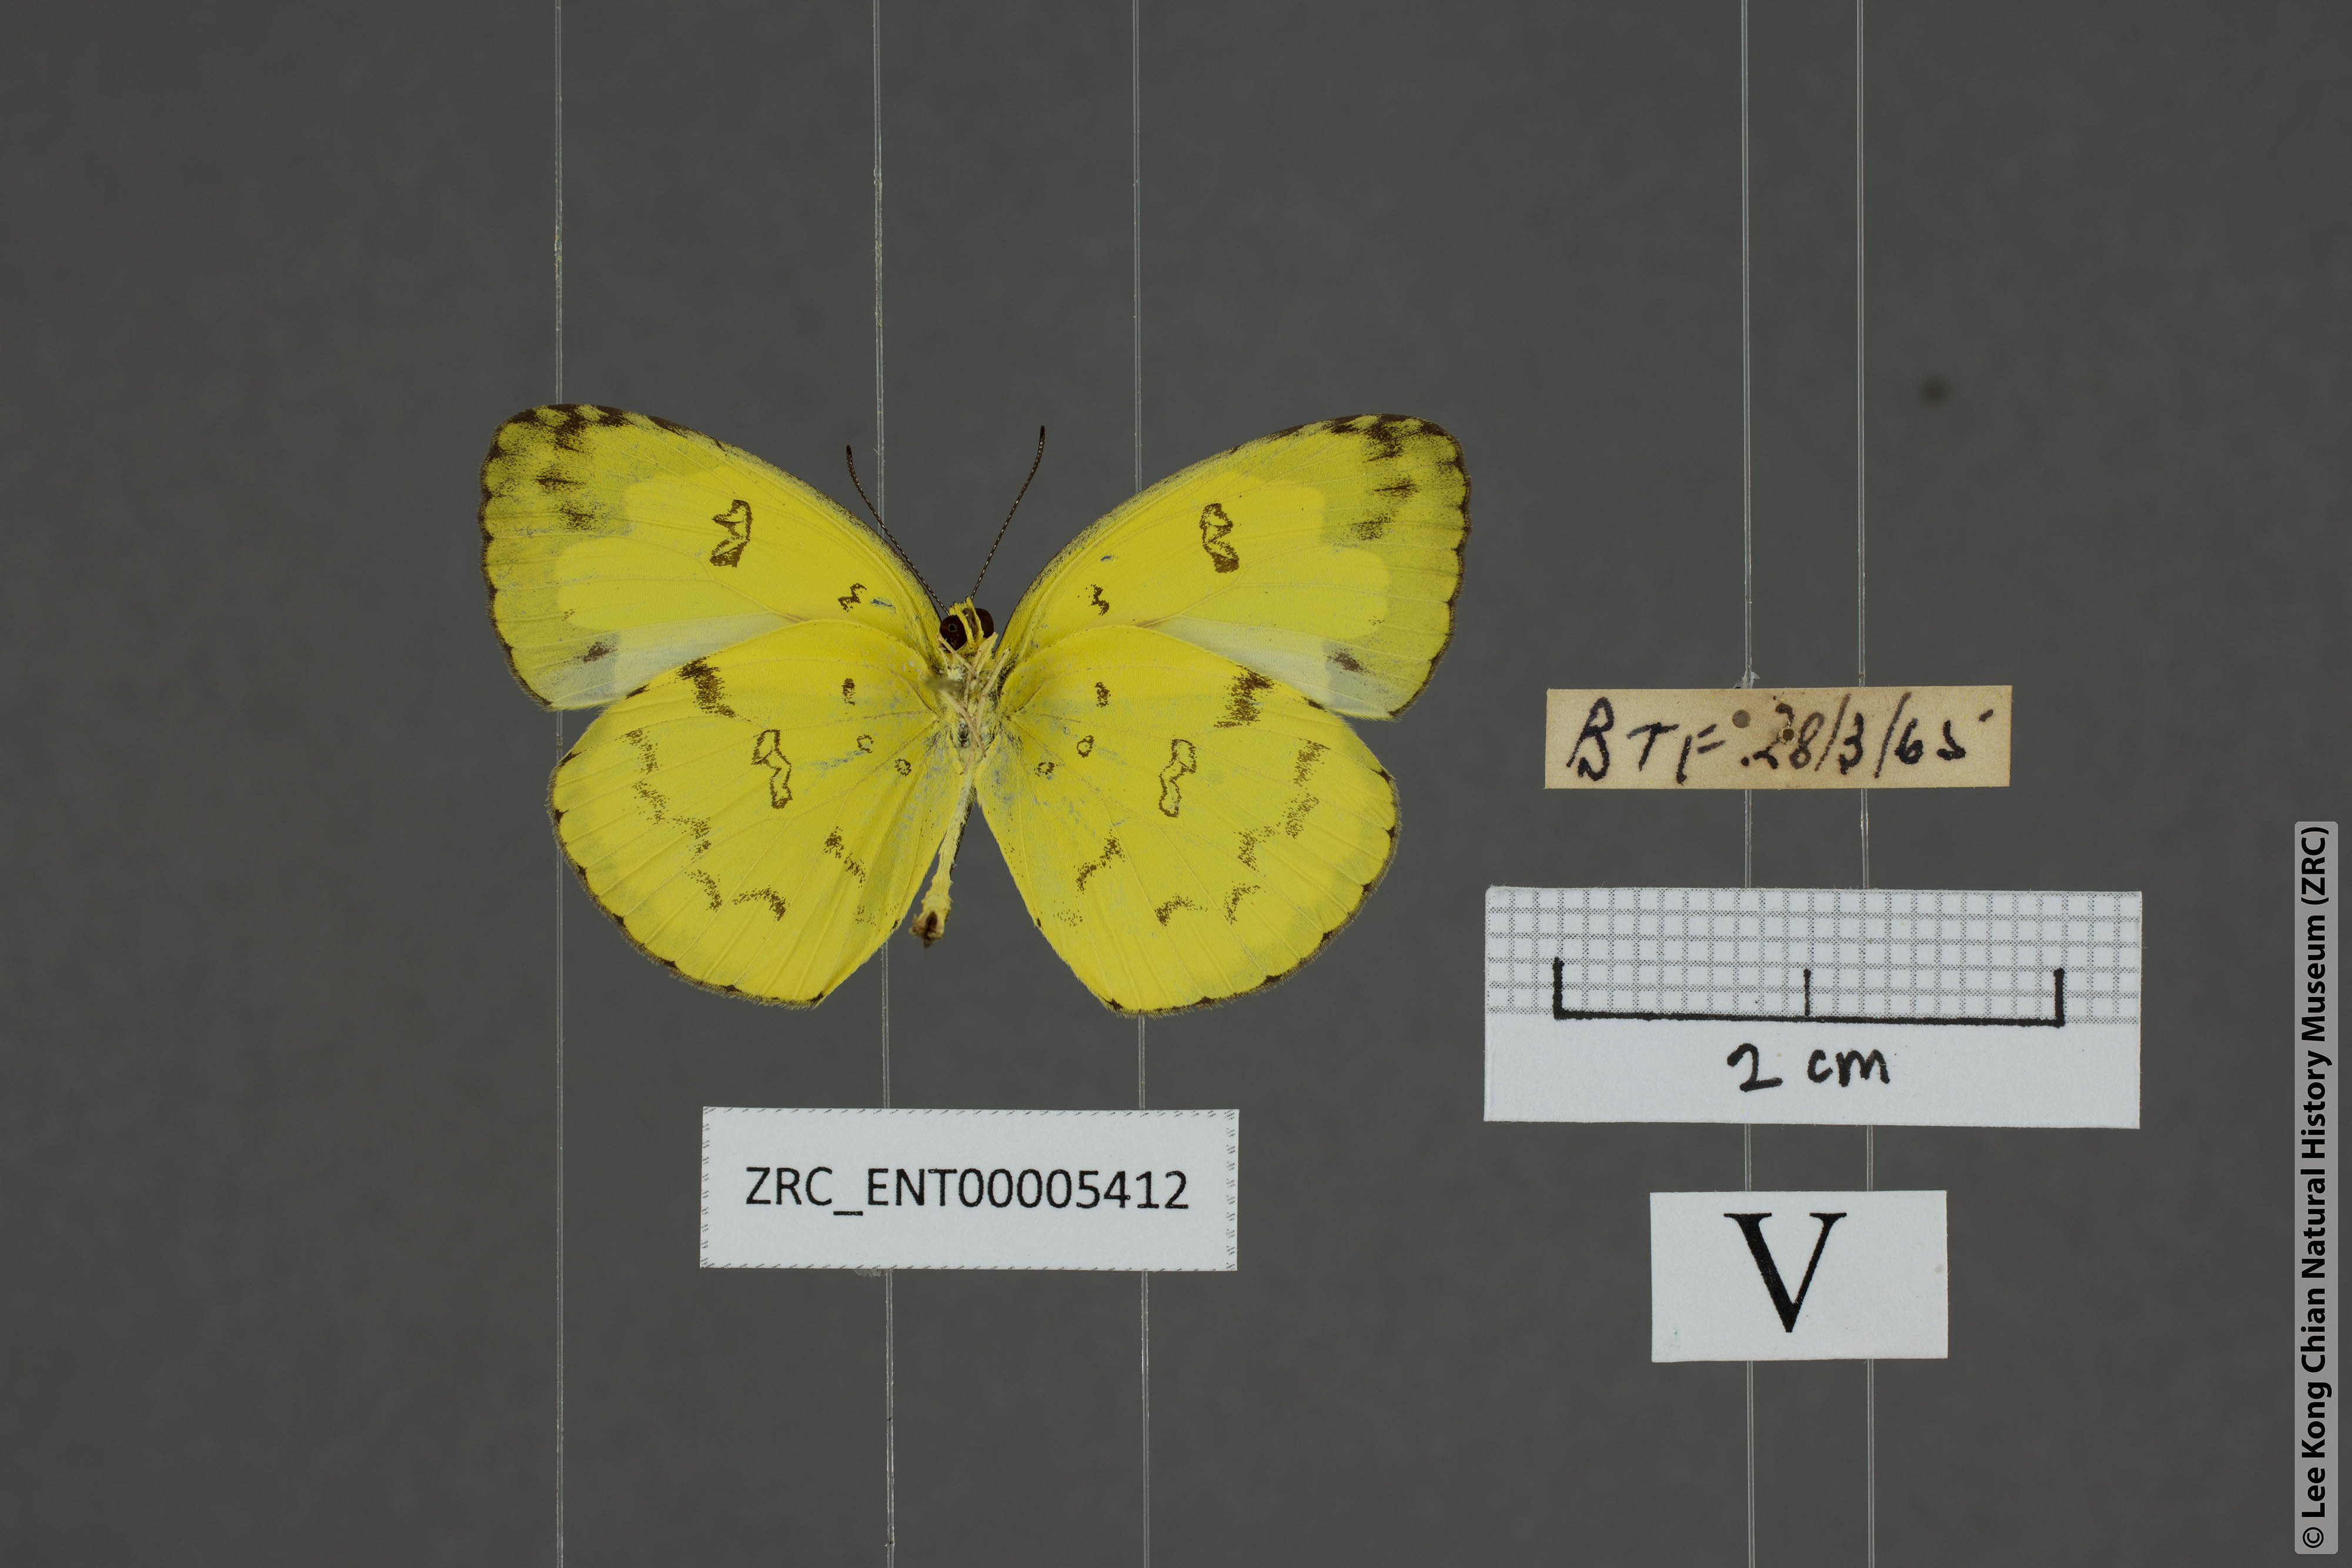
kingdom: Animalia
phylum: Arthropoda
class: Insecta
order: Lepidoptera
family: Pieridae
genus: Eurema
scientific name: Eurema andersoni
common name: One-spot yellow grass
